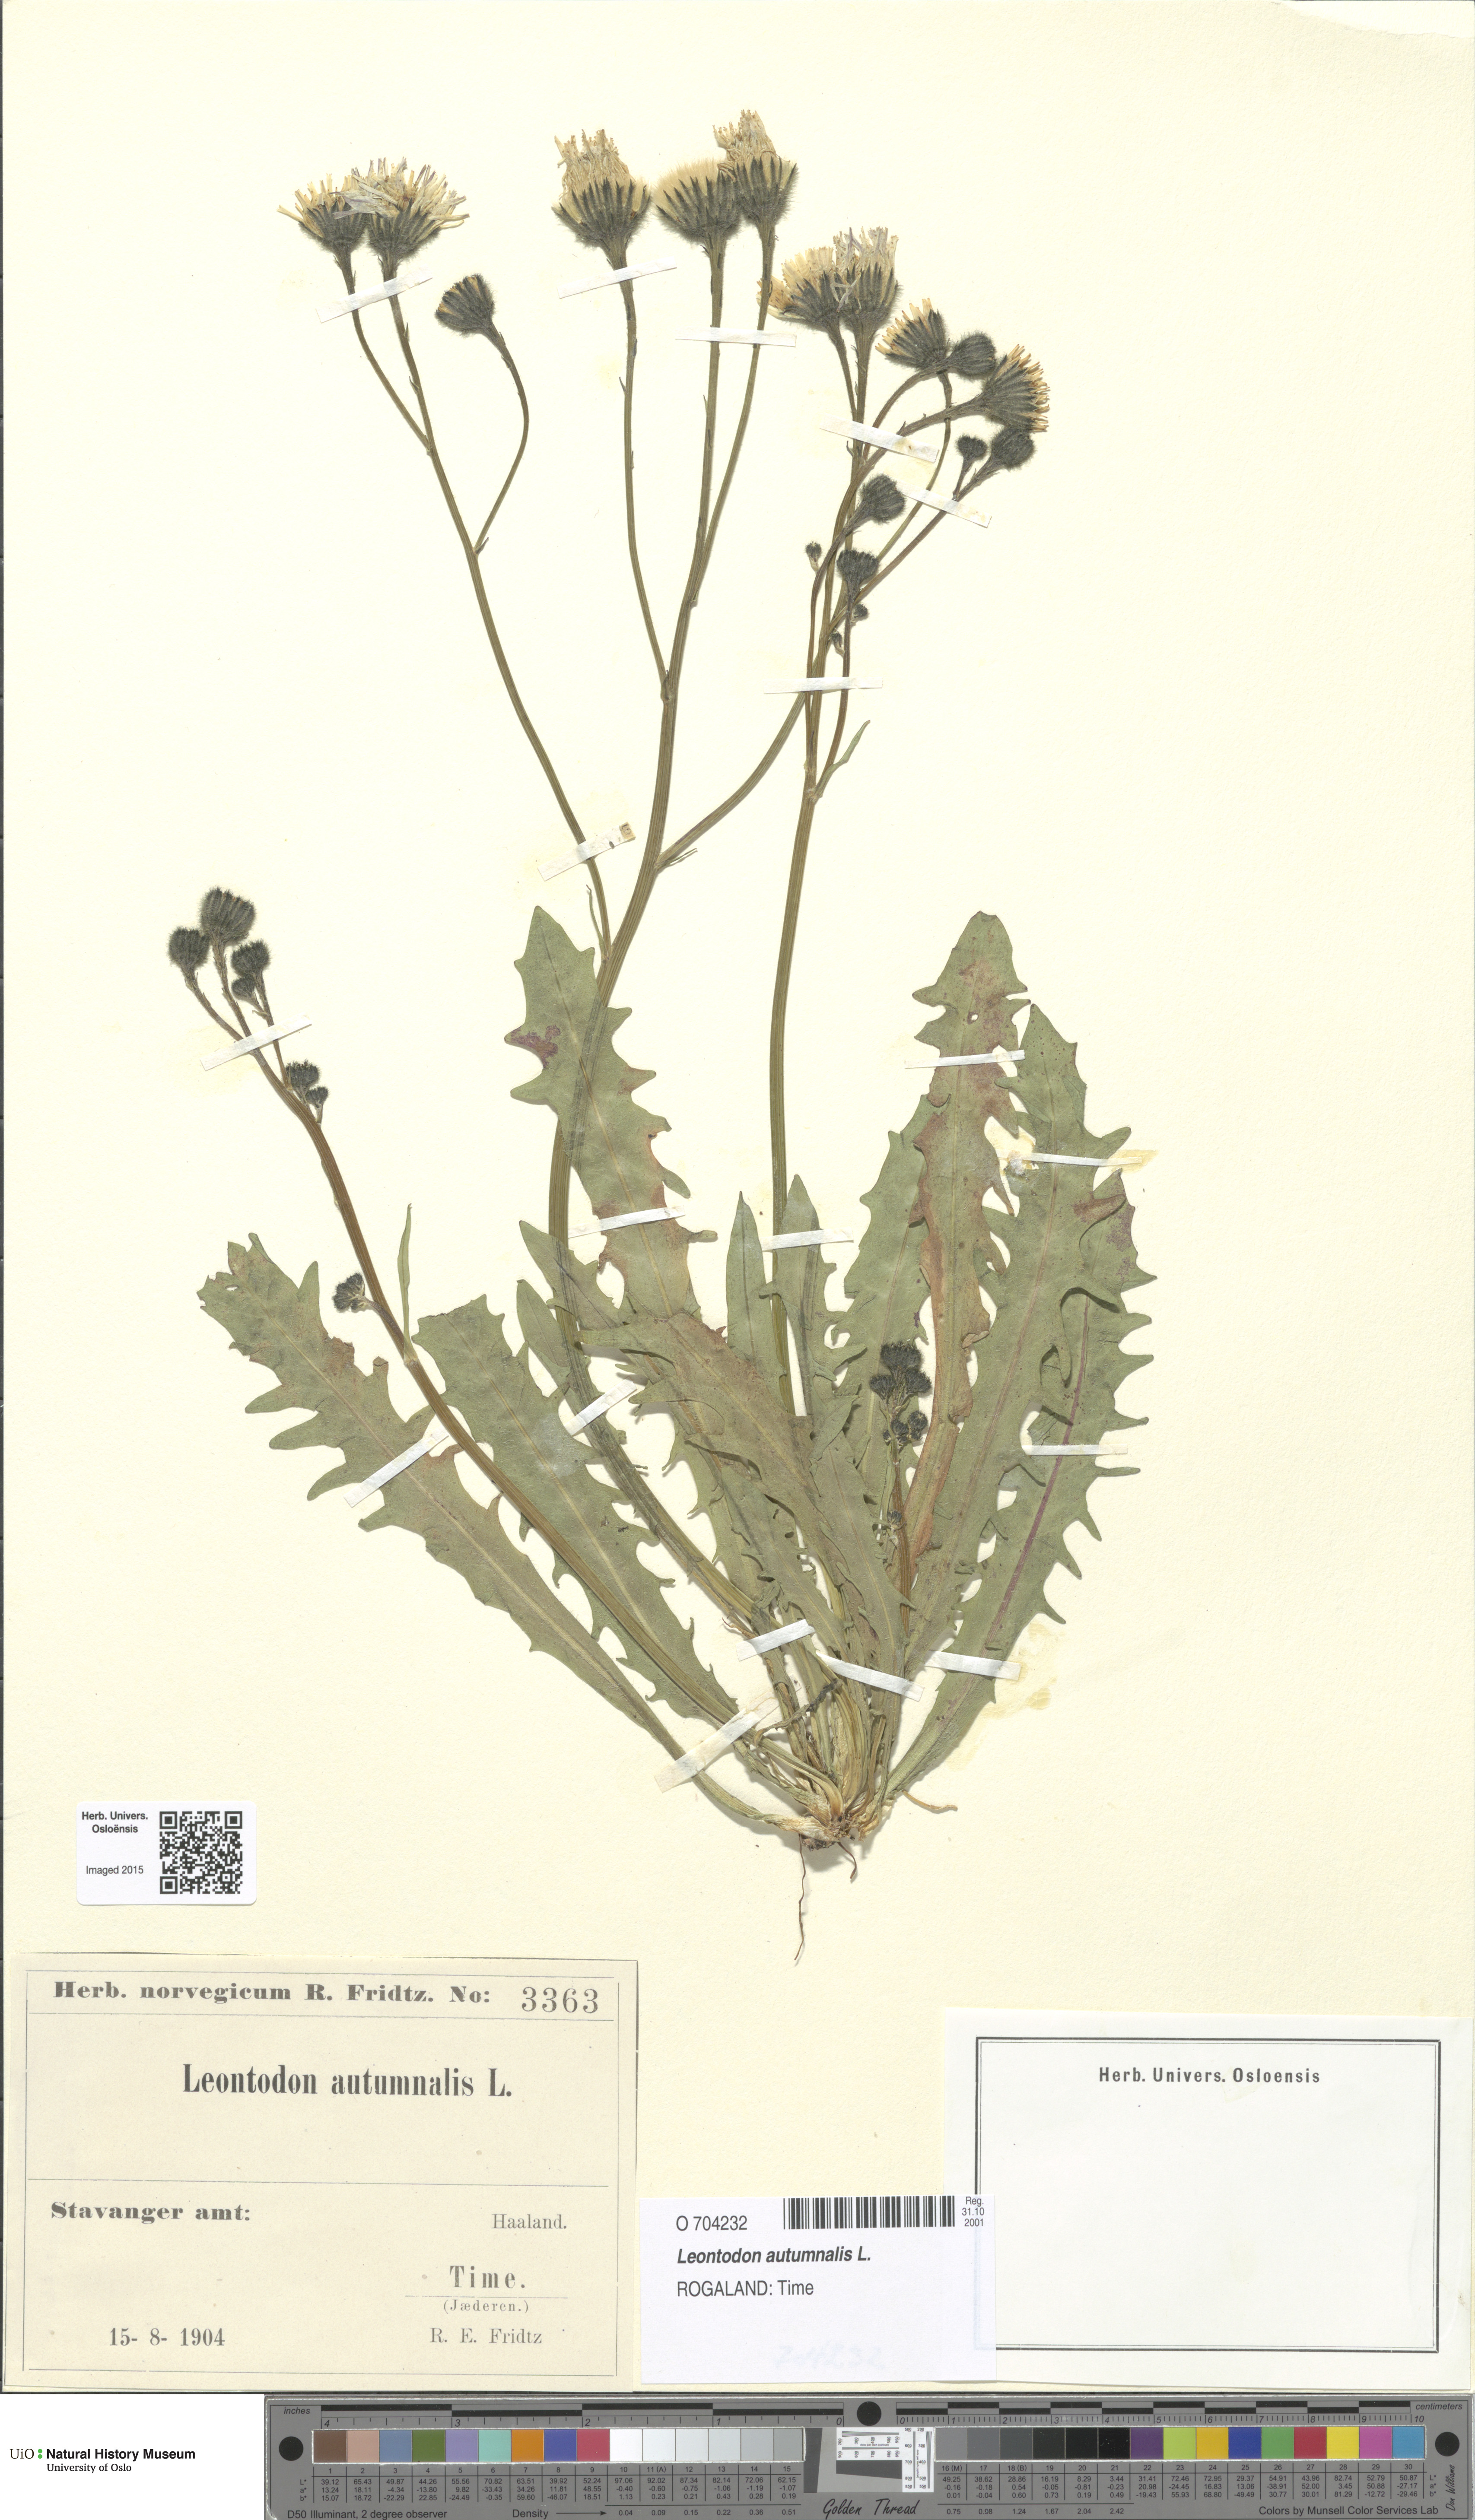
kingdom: Plantae
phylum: Tracheophyta
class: Magnoliopsida
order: Asterales
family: Asteraceae
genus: Scorzoneroides
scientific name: Scorzoneroides autumnalis
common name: Autumn hawkbit
